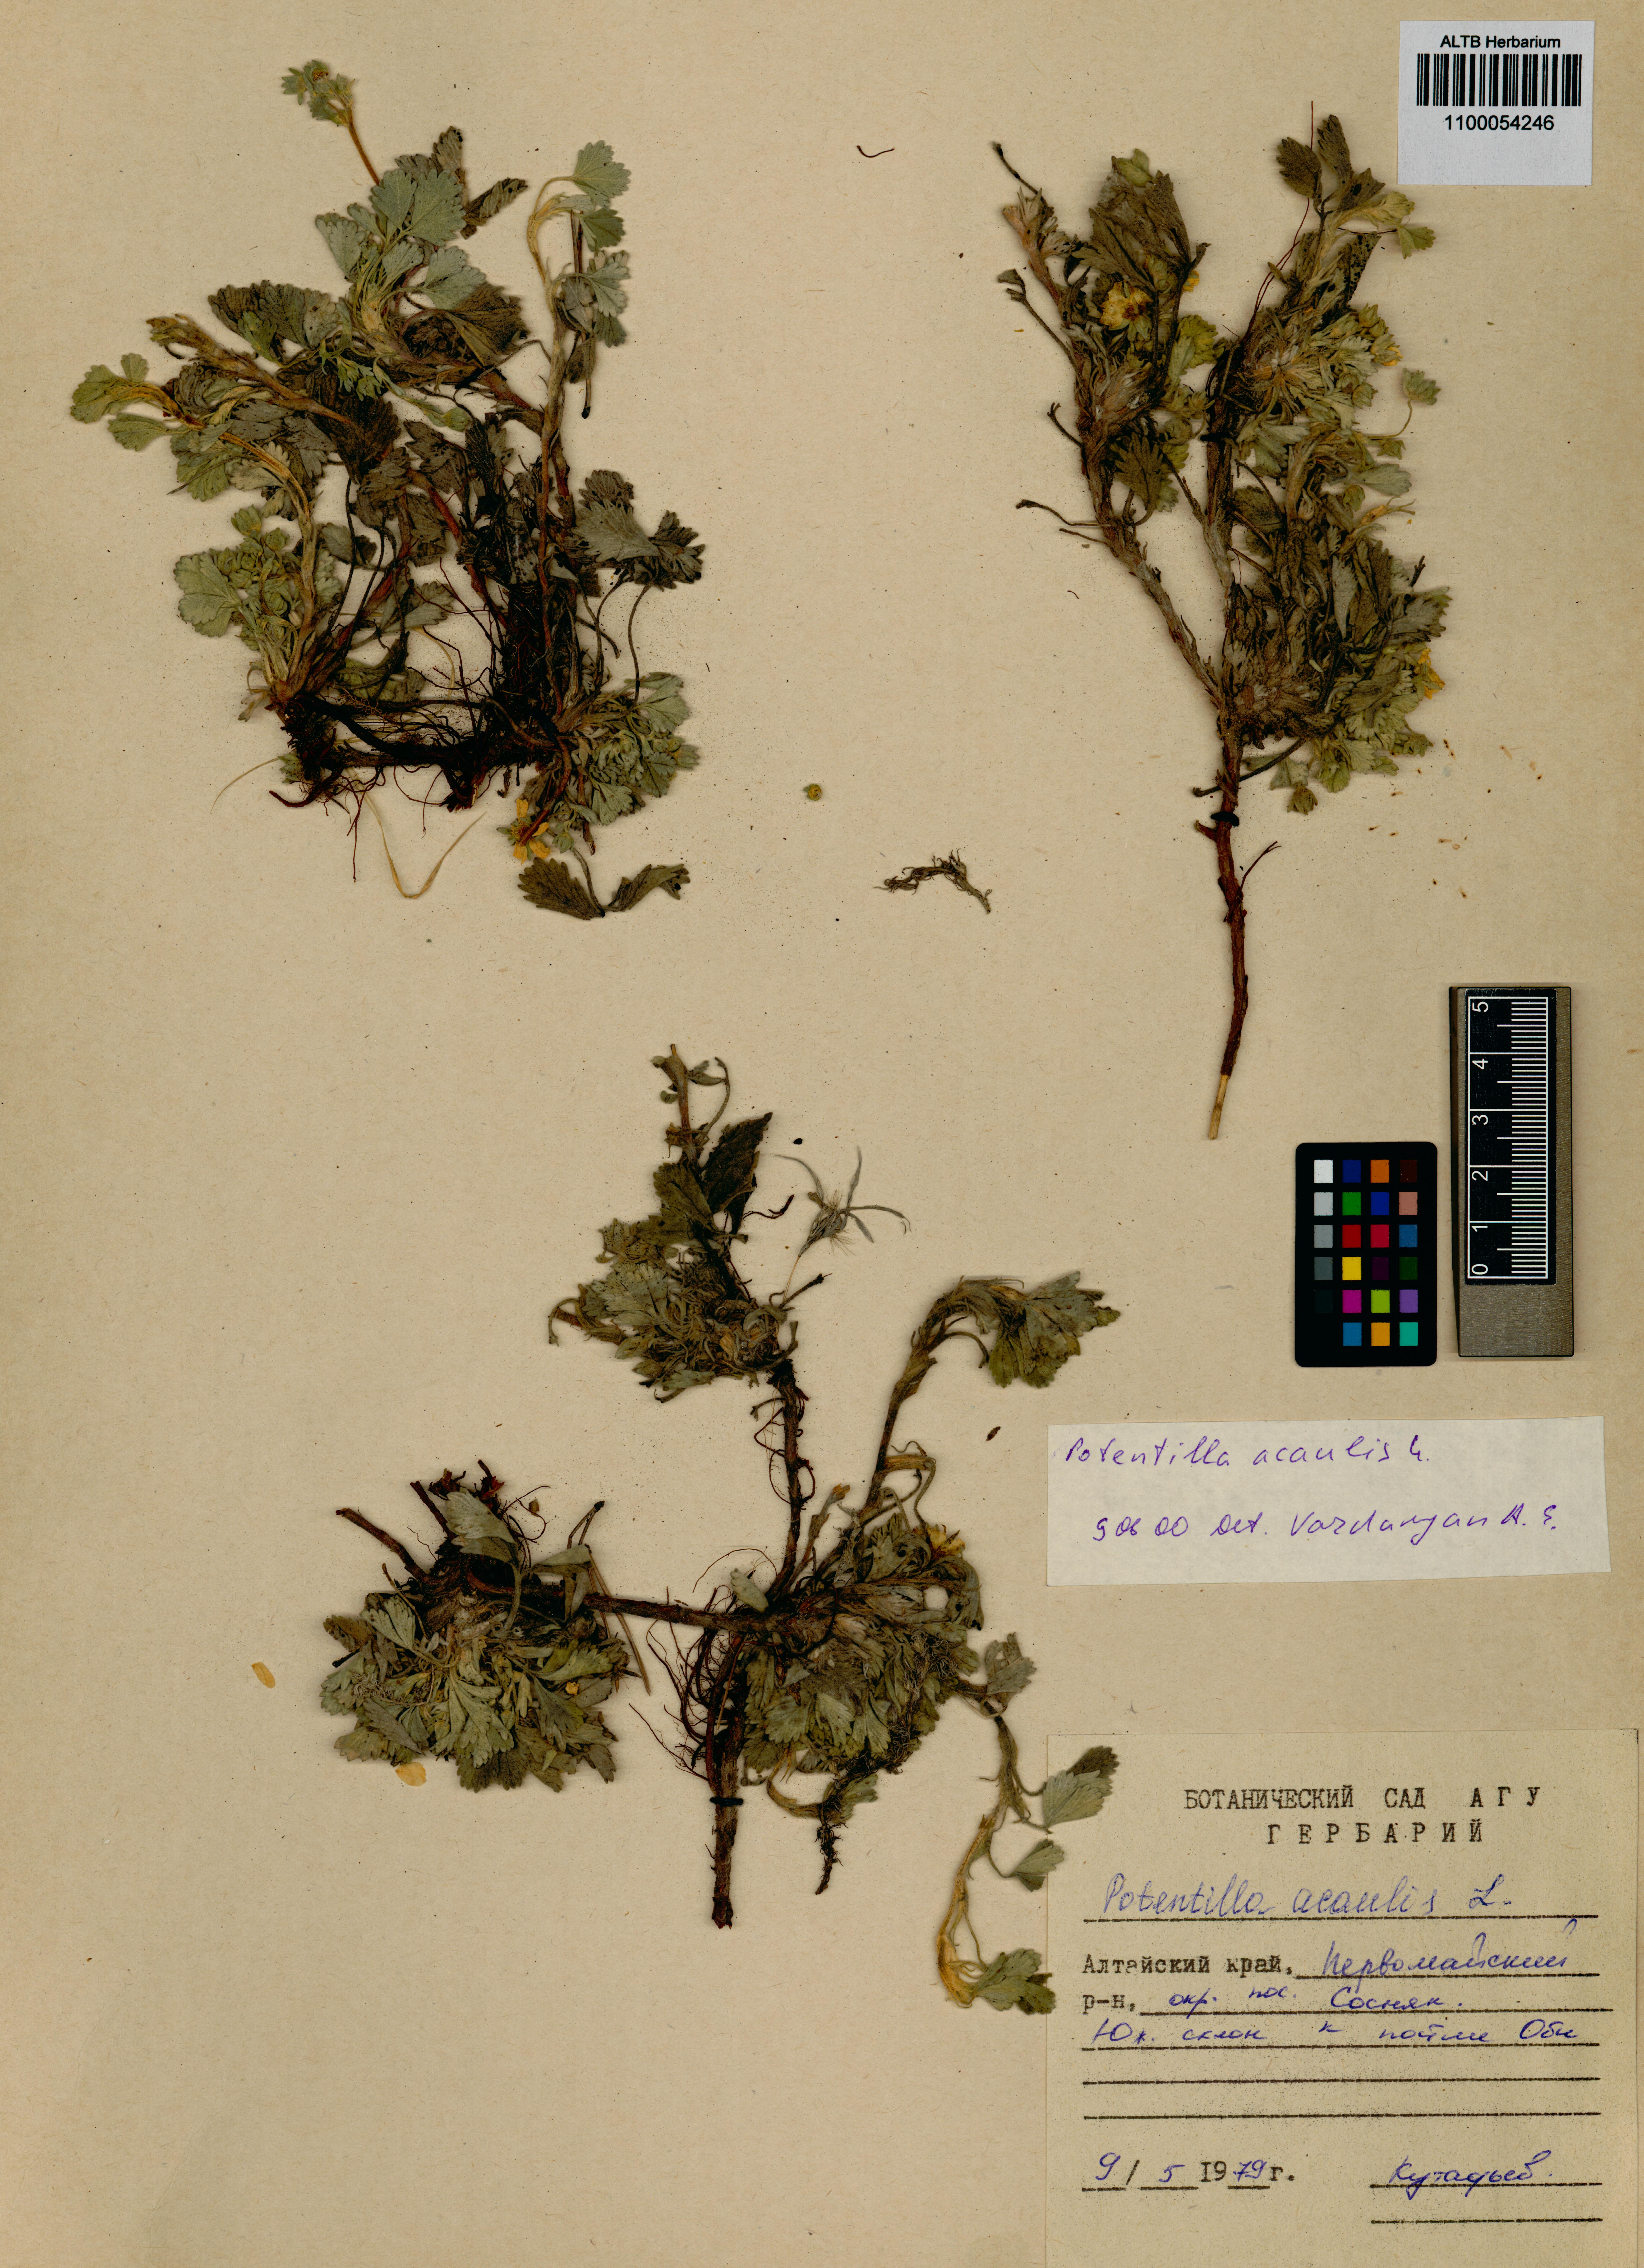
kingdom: Plantae
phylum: Tracheophyta
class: Magnoliopsida
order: Rosales
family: Rosaceae
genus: Potentilla
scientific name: Potentilla acaulis
